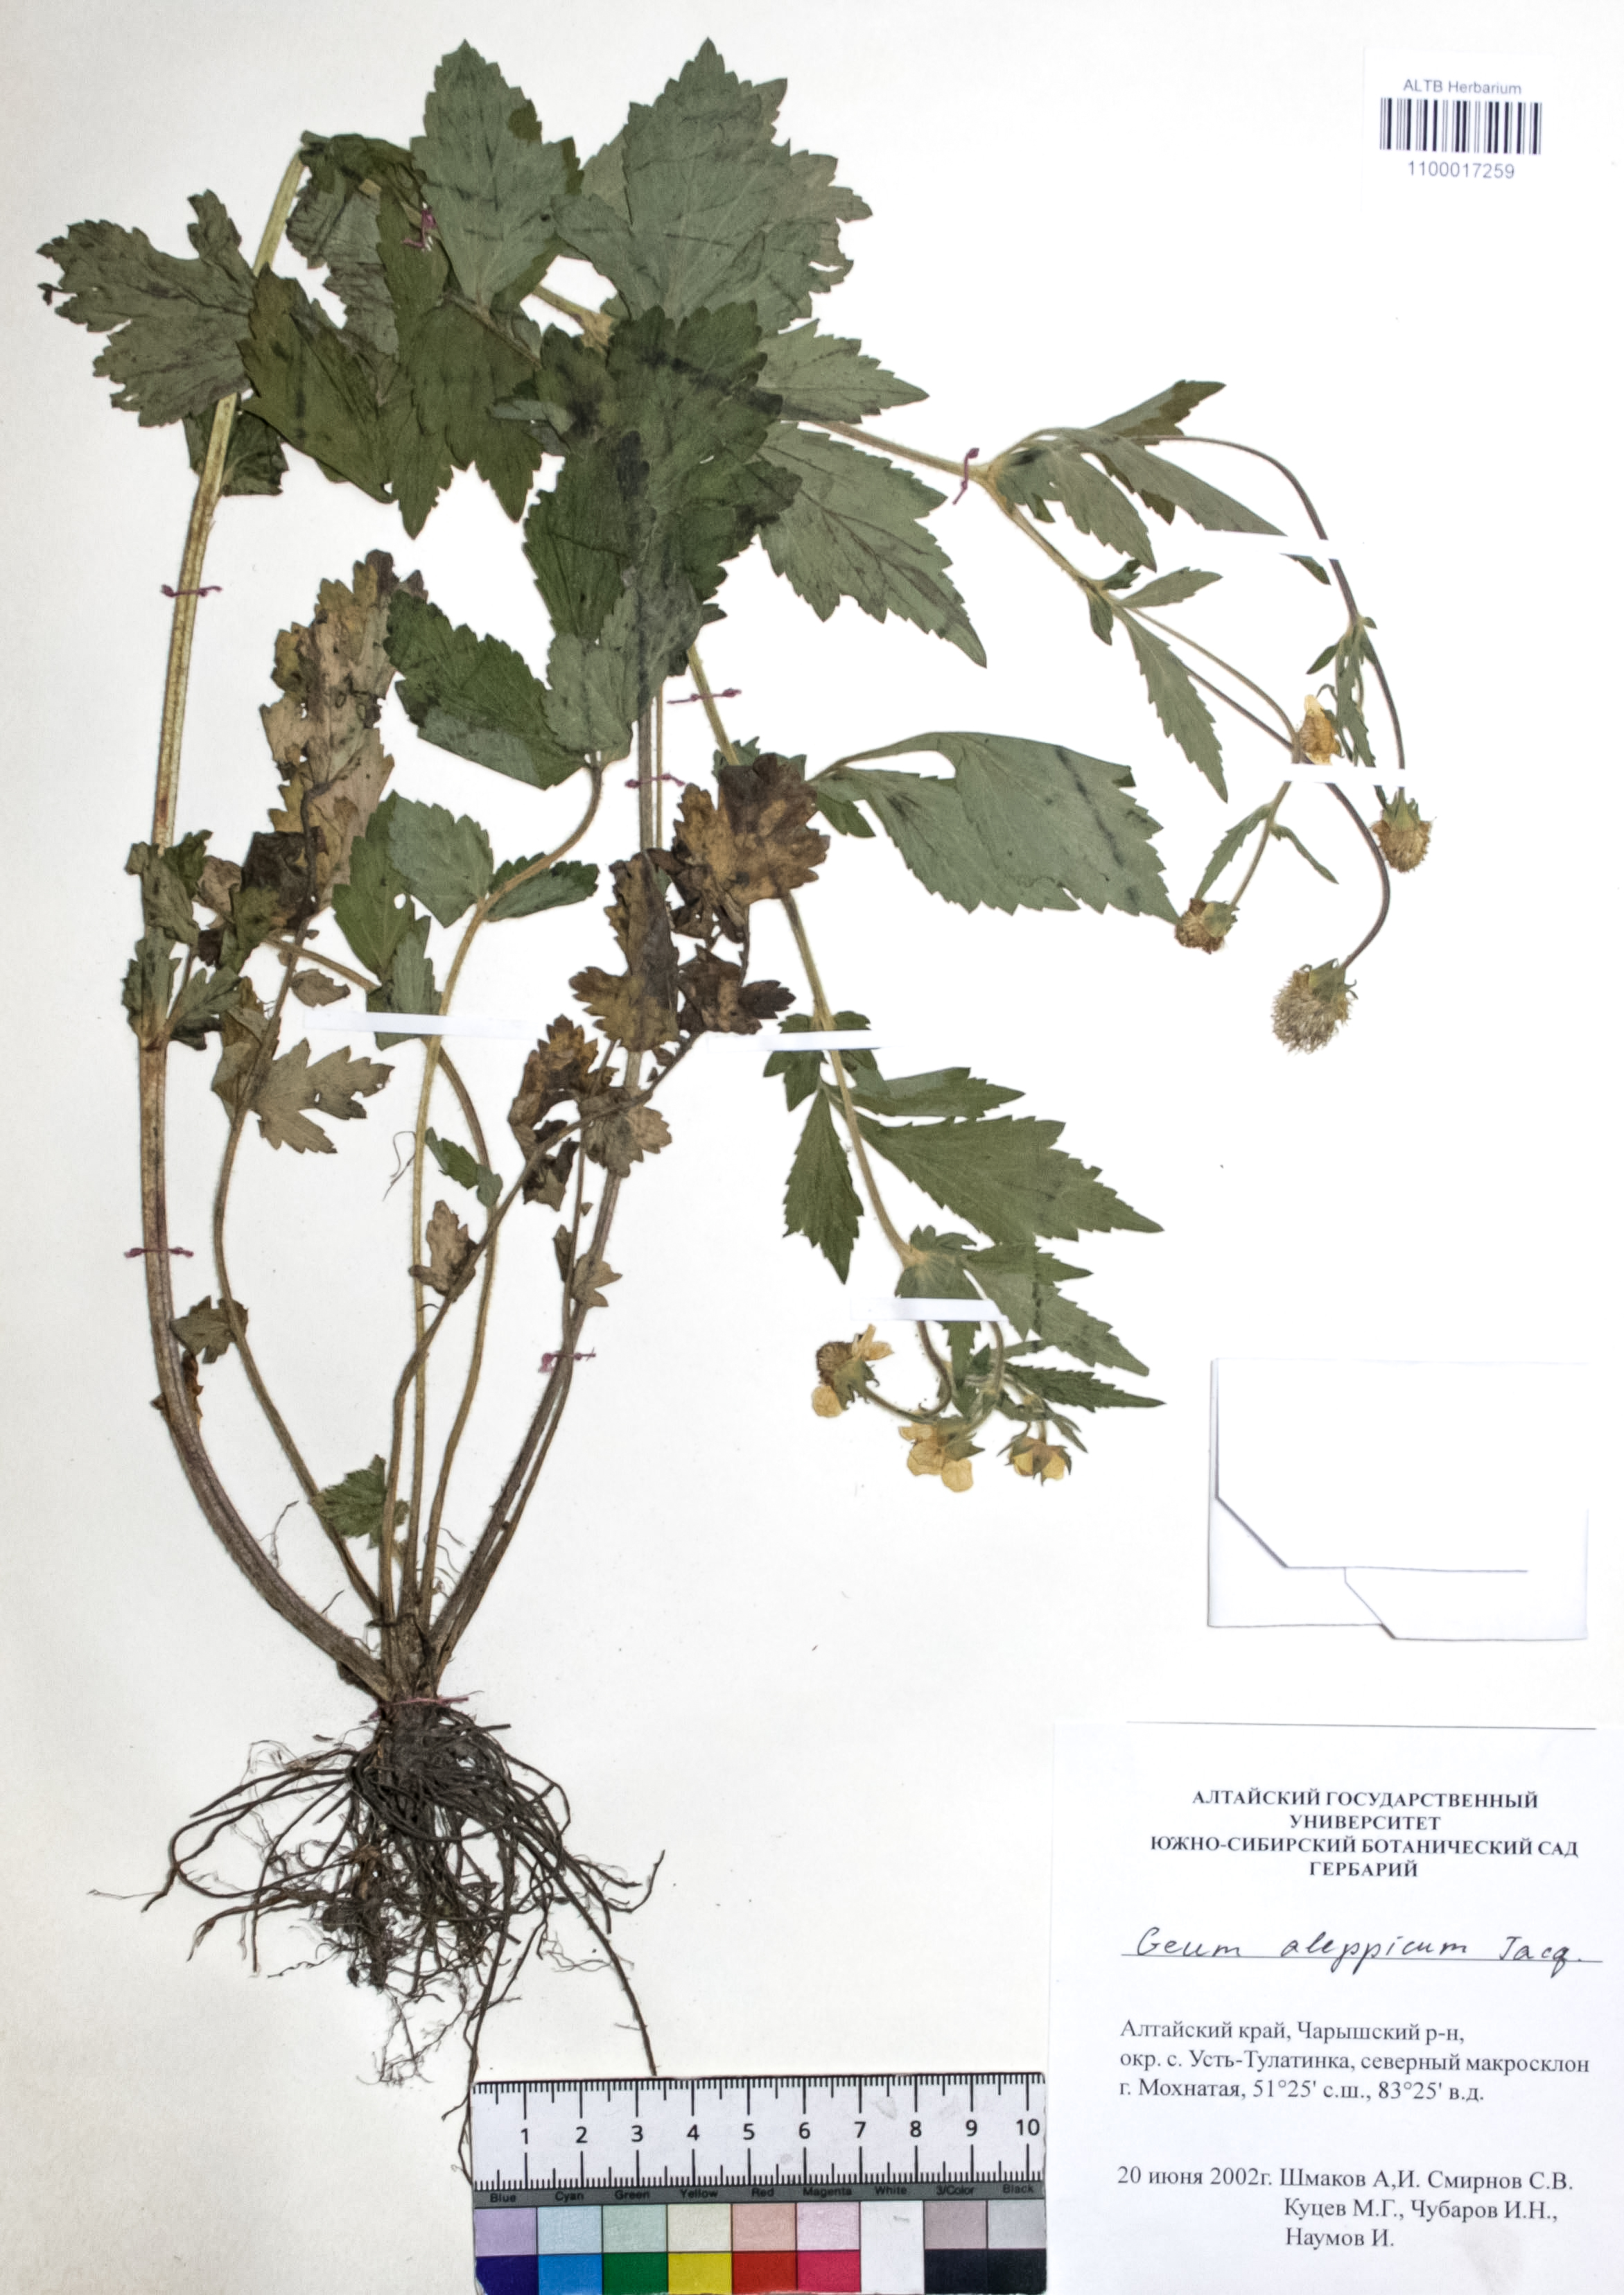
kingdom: Plantae
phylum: Tracheophyta
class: Magnoliopsida
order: Rosales
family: Rosaceae
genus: Geum
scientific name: Geum aleppicum
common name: Yellow avens
